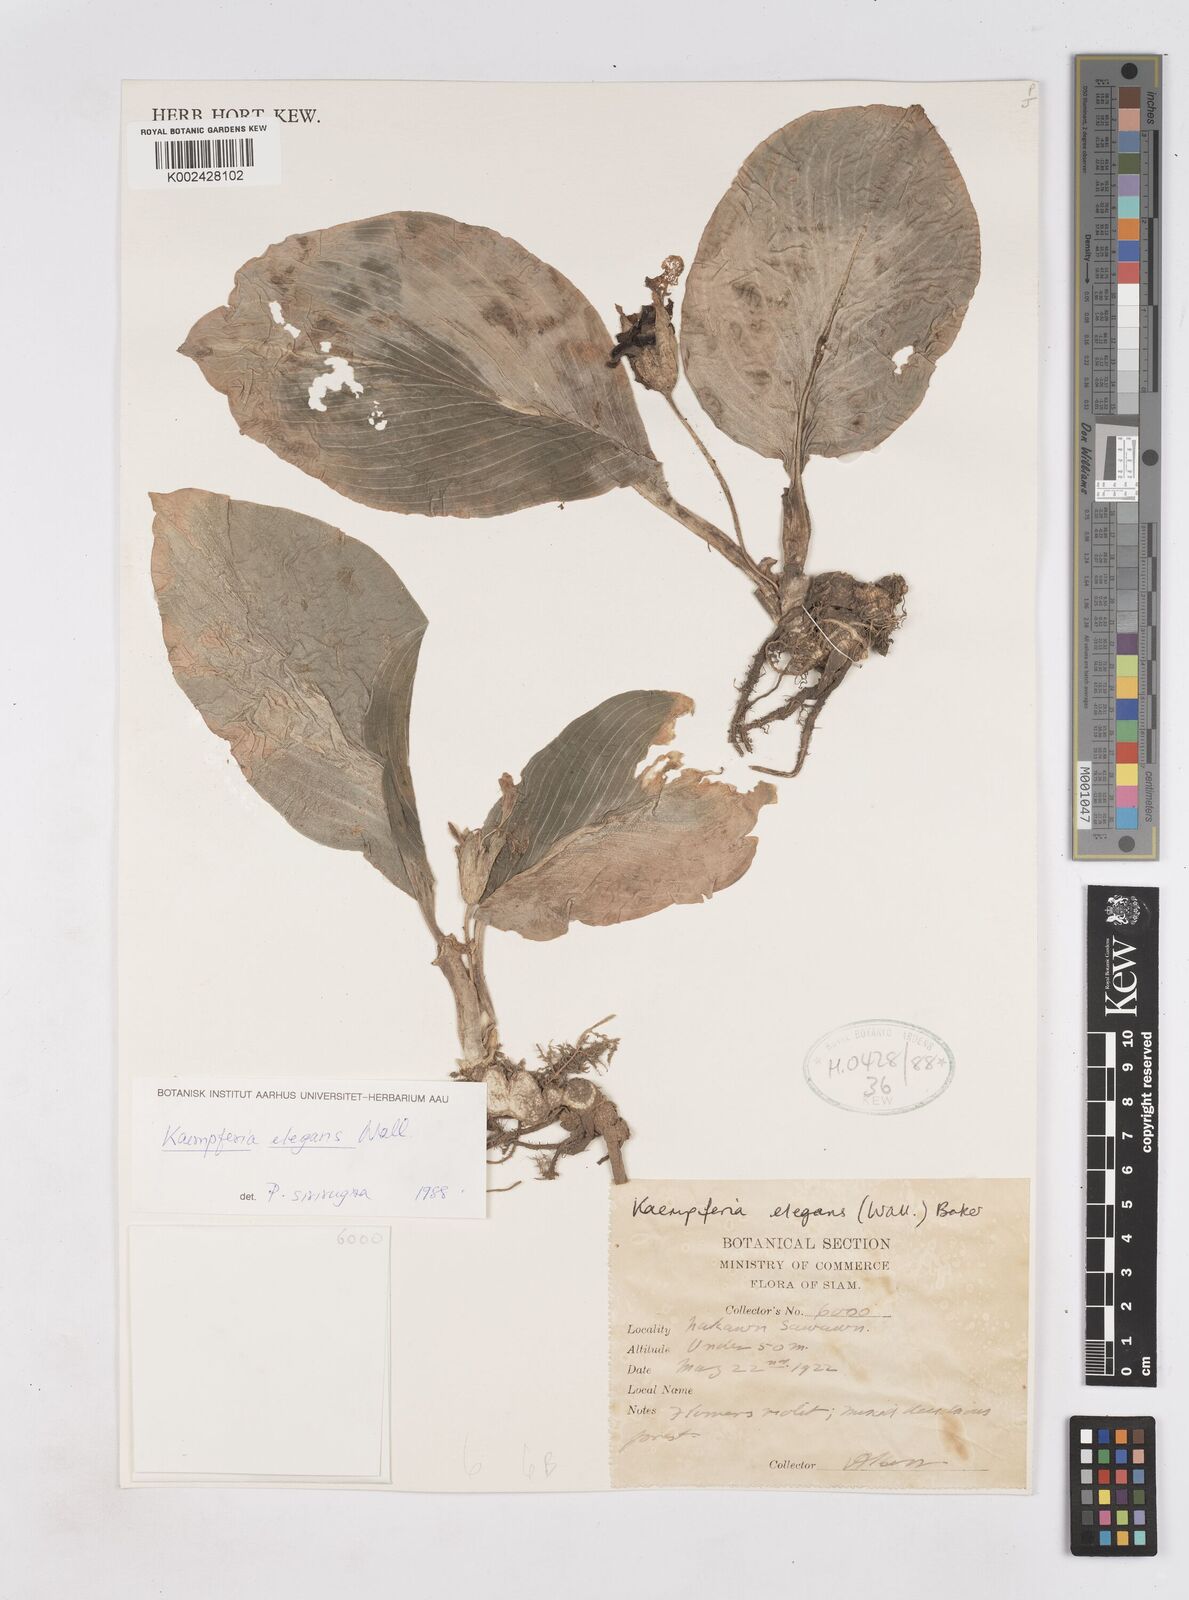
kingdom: Plantae
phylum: Tracheophyta
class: Liliopsida
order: Zingiberales
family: Zingiberaceae
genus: Kaempferia
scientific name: Kaempferia elegans
